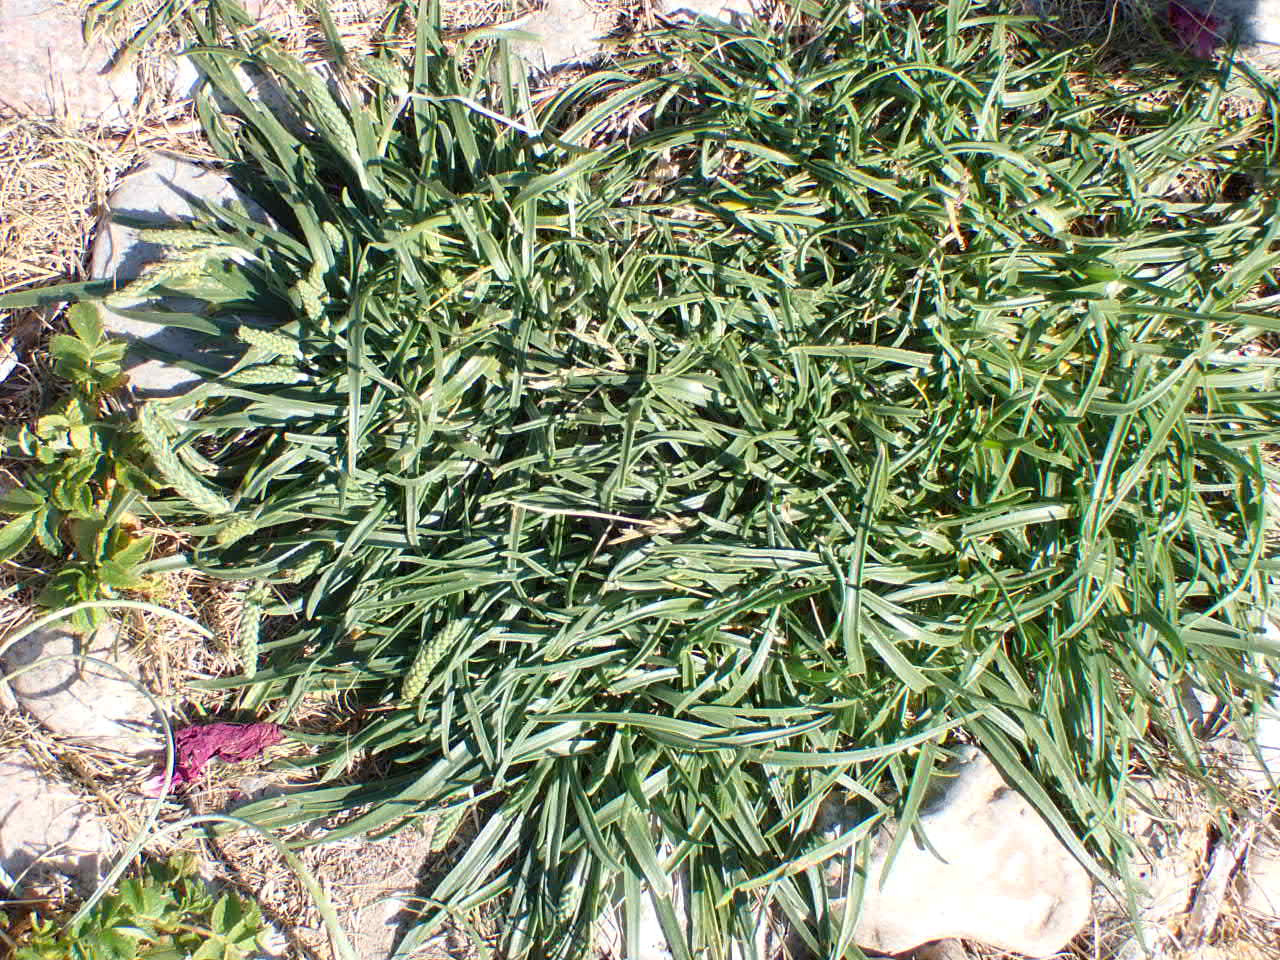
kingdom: Plantae
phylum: Tracheophyta
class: Magnoliopsida
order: Lamiales
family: Plantaginaceae
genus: Plantago
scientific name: Plantago maritima
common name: Strand-vejbred
